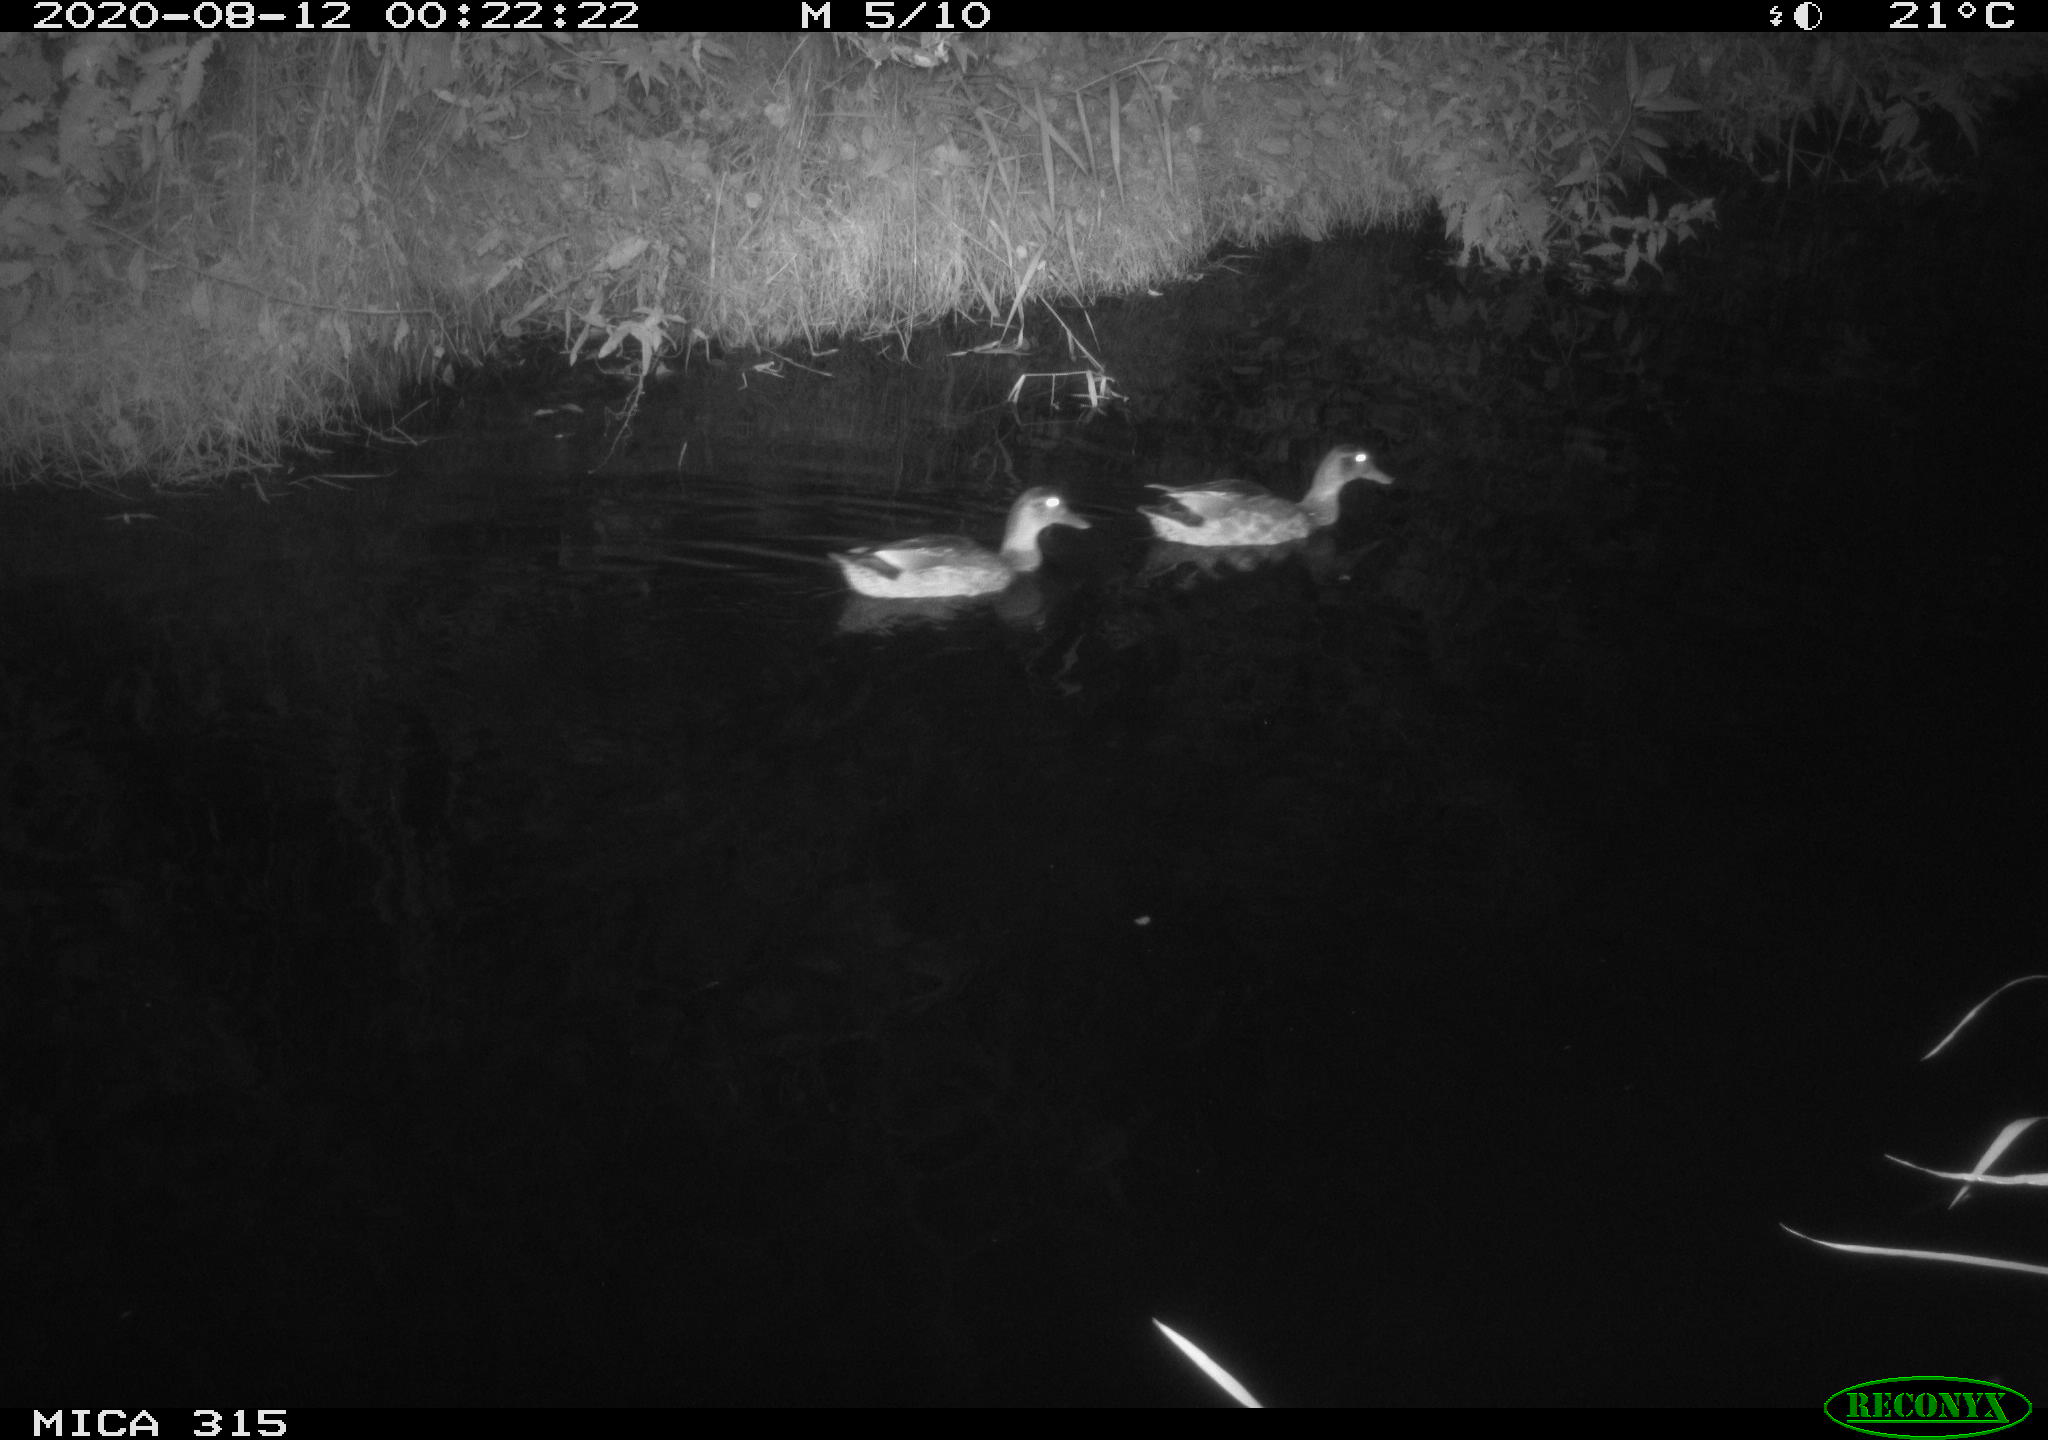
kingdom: Animalia
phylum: Chordata
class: Aves
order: Anseriformes
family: Anatidae
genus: Anas
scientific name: Anas platyrhynchos
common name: Mallard
